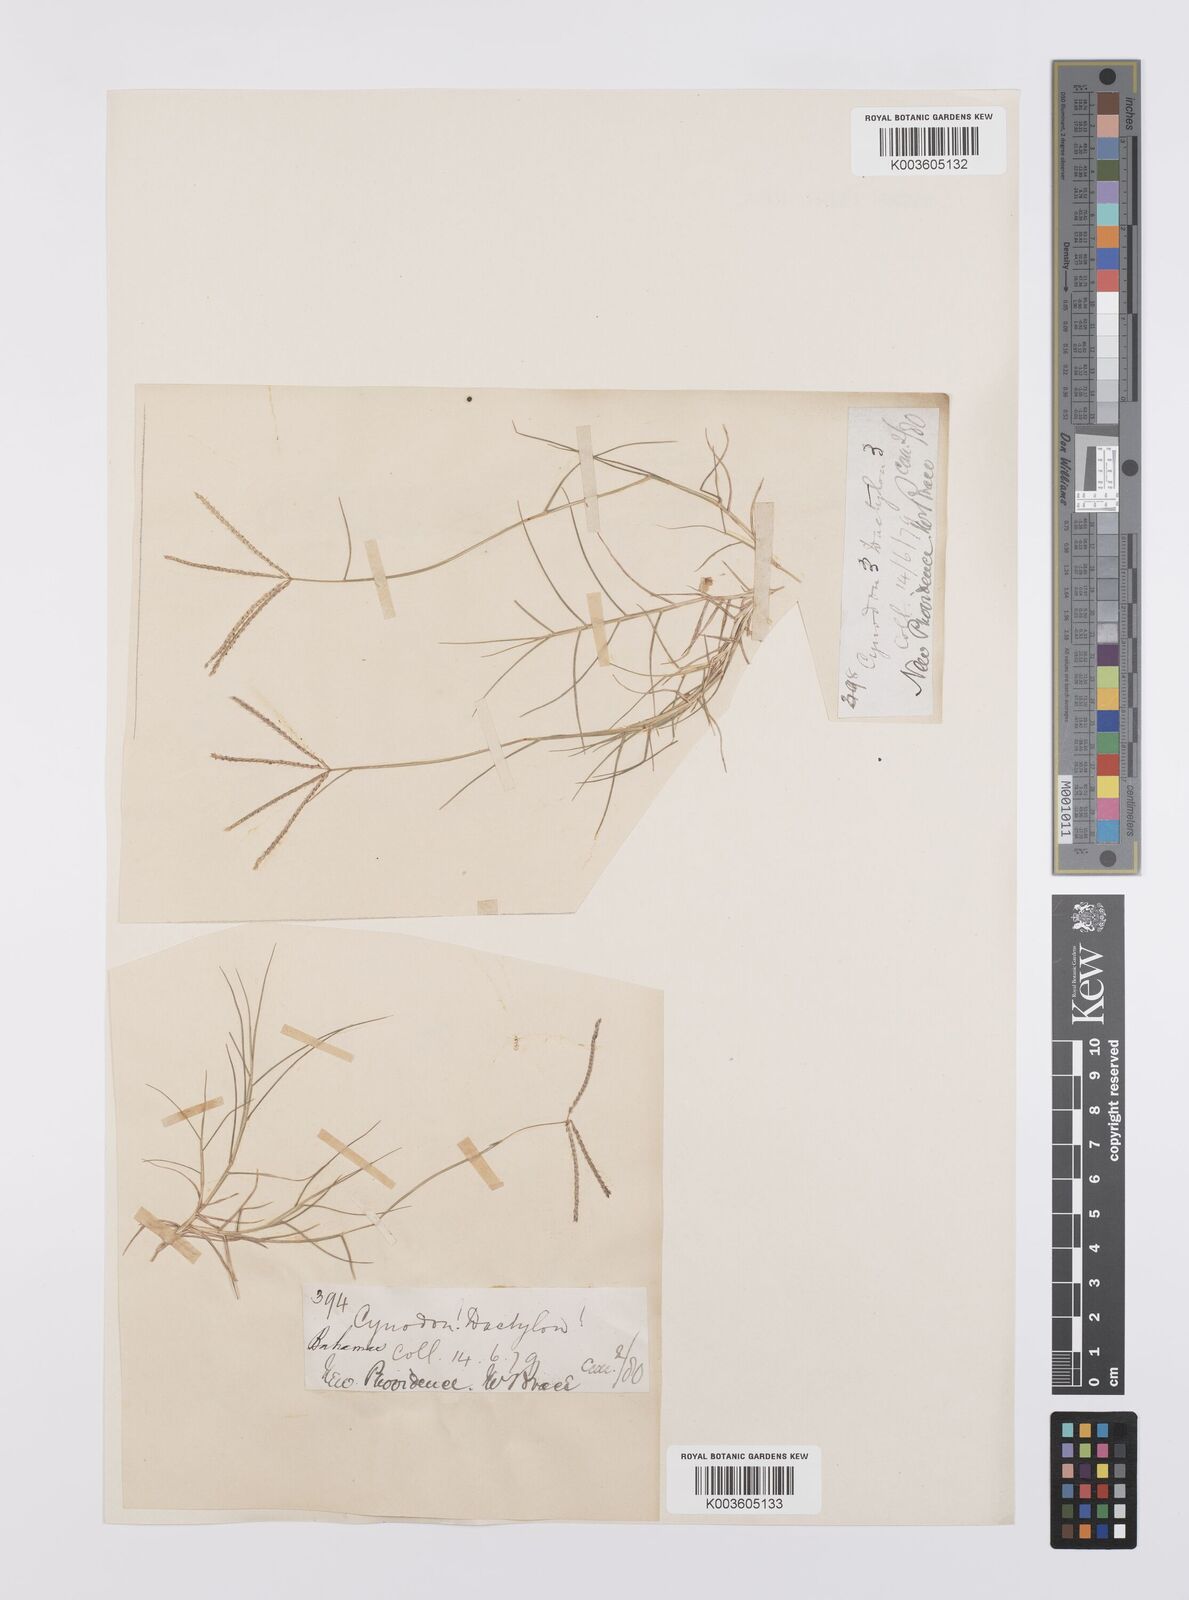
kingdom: Plantae
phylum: Tracheophyta
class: Liliopsida
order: Poales
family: Poaceae
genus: Cynodon
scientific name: Cynodon dactylon
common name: Bermuda grass
